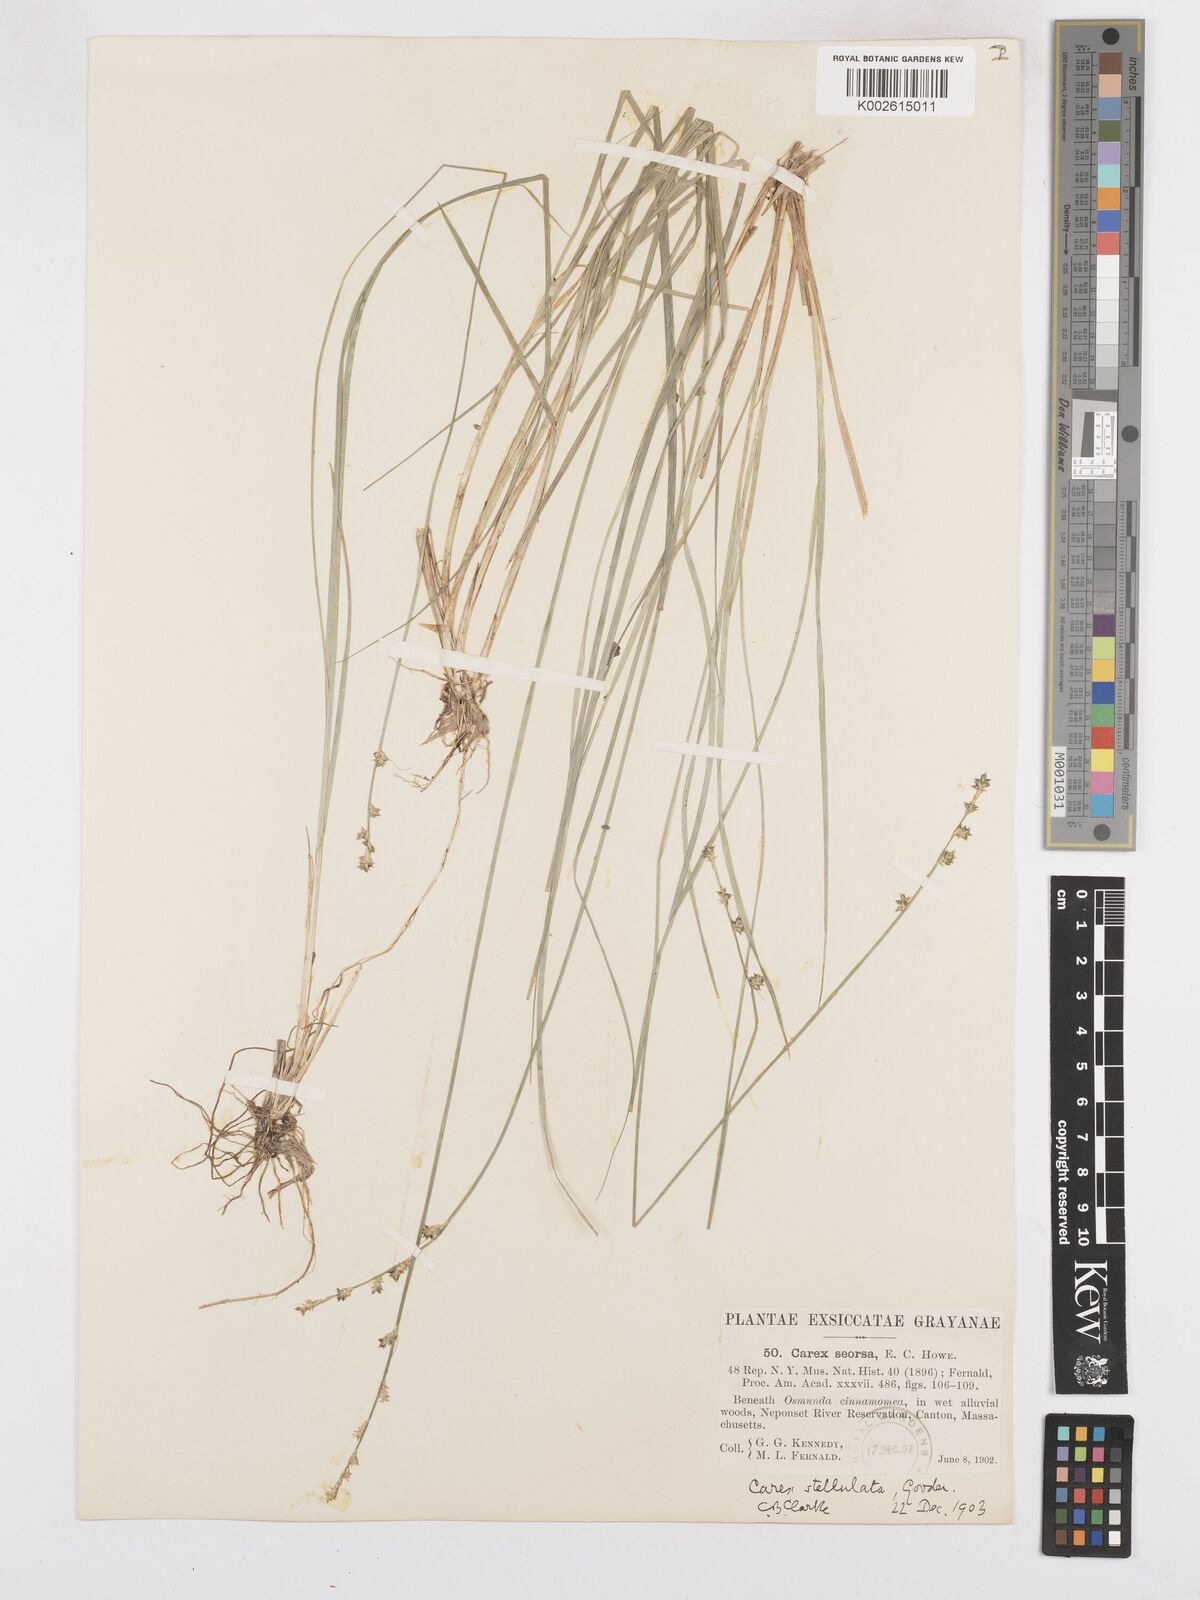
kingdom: Plantae
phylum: Tracheophyta
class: Liliopsida
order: Poales
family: Cyperaceae
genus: Carex
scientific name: Carex seorsa
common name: Swamp star sedge
